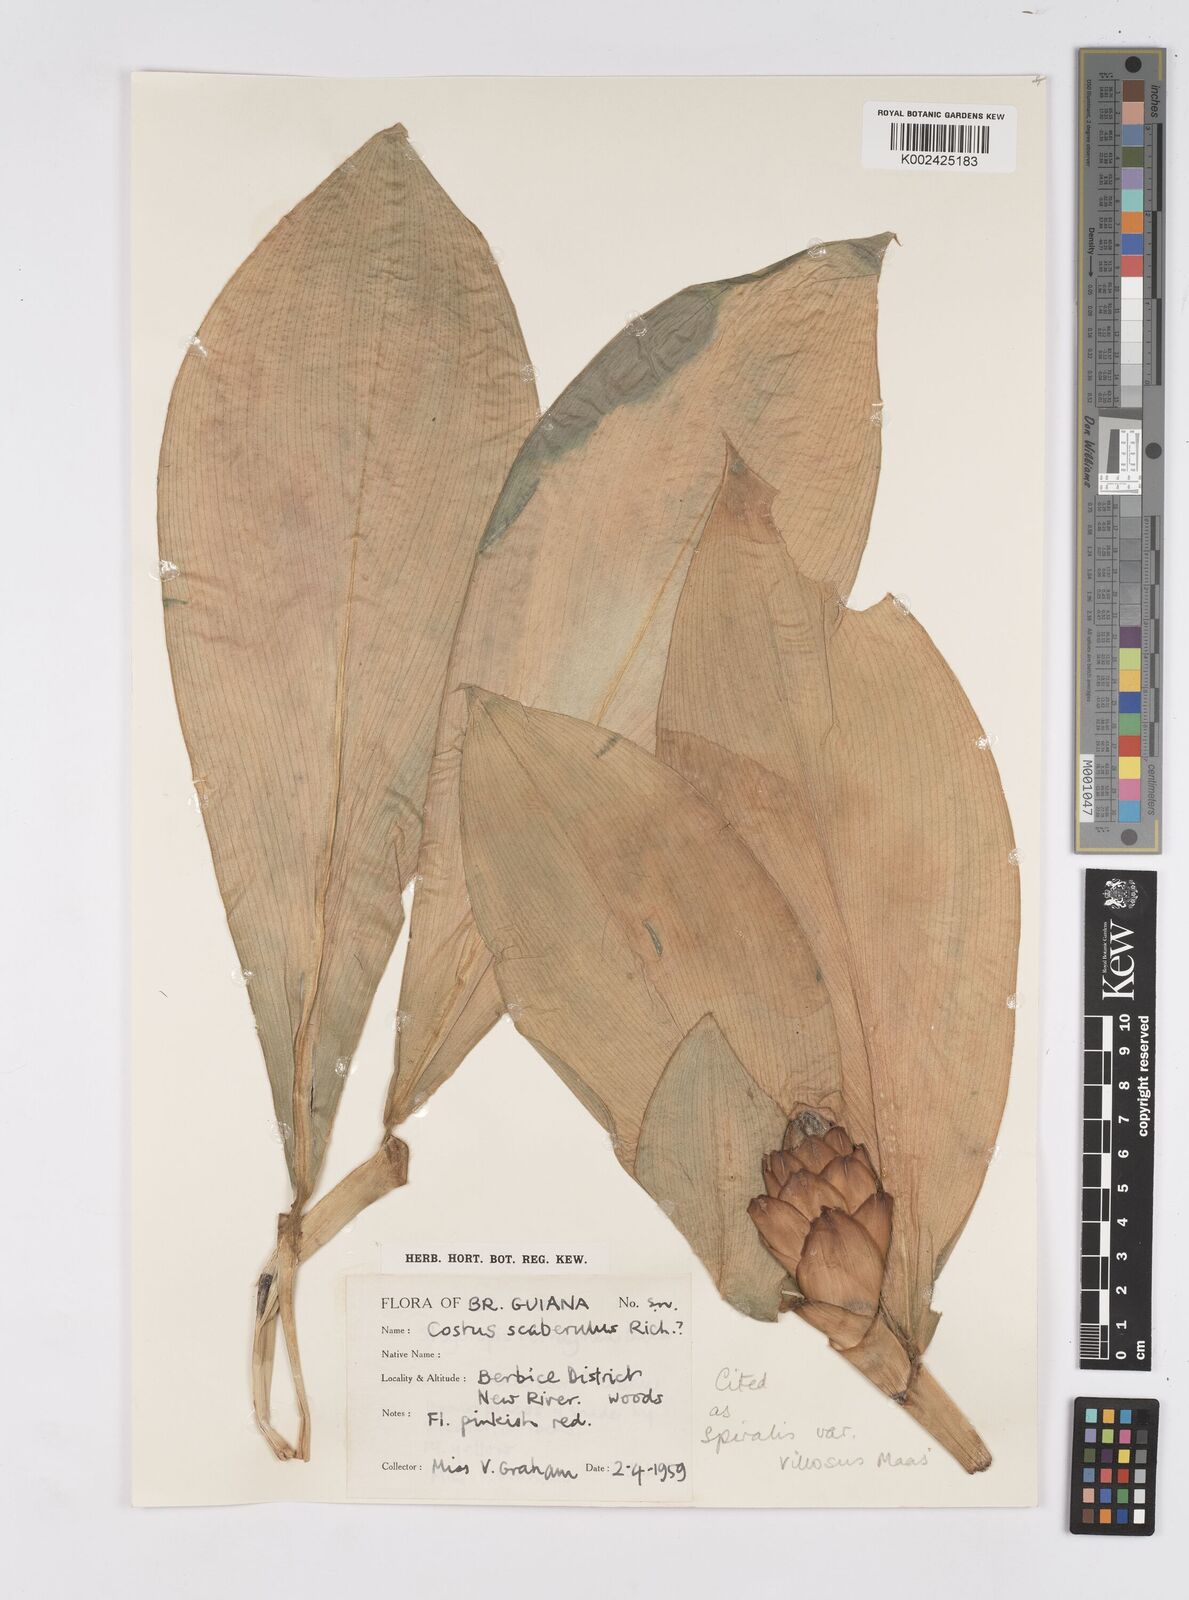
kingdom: Plantae
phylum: Tracheophyta
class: Liliopsida
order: Zingiberales
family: Costaceae
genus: Costus
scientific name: Costus spiralis
